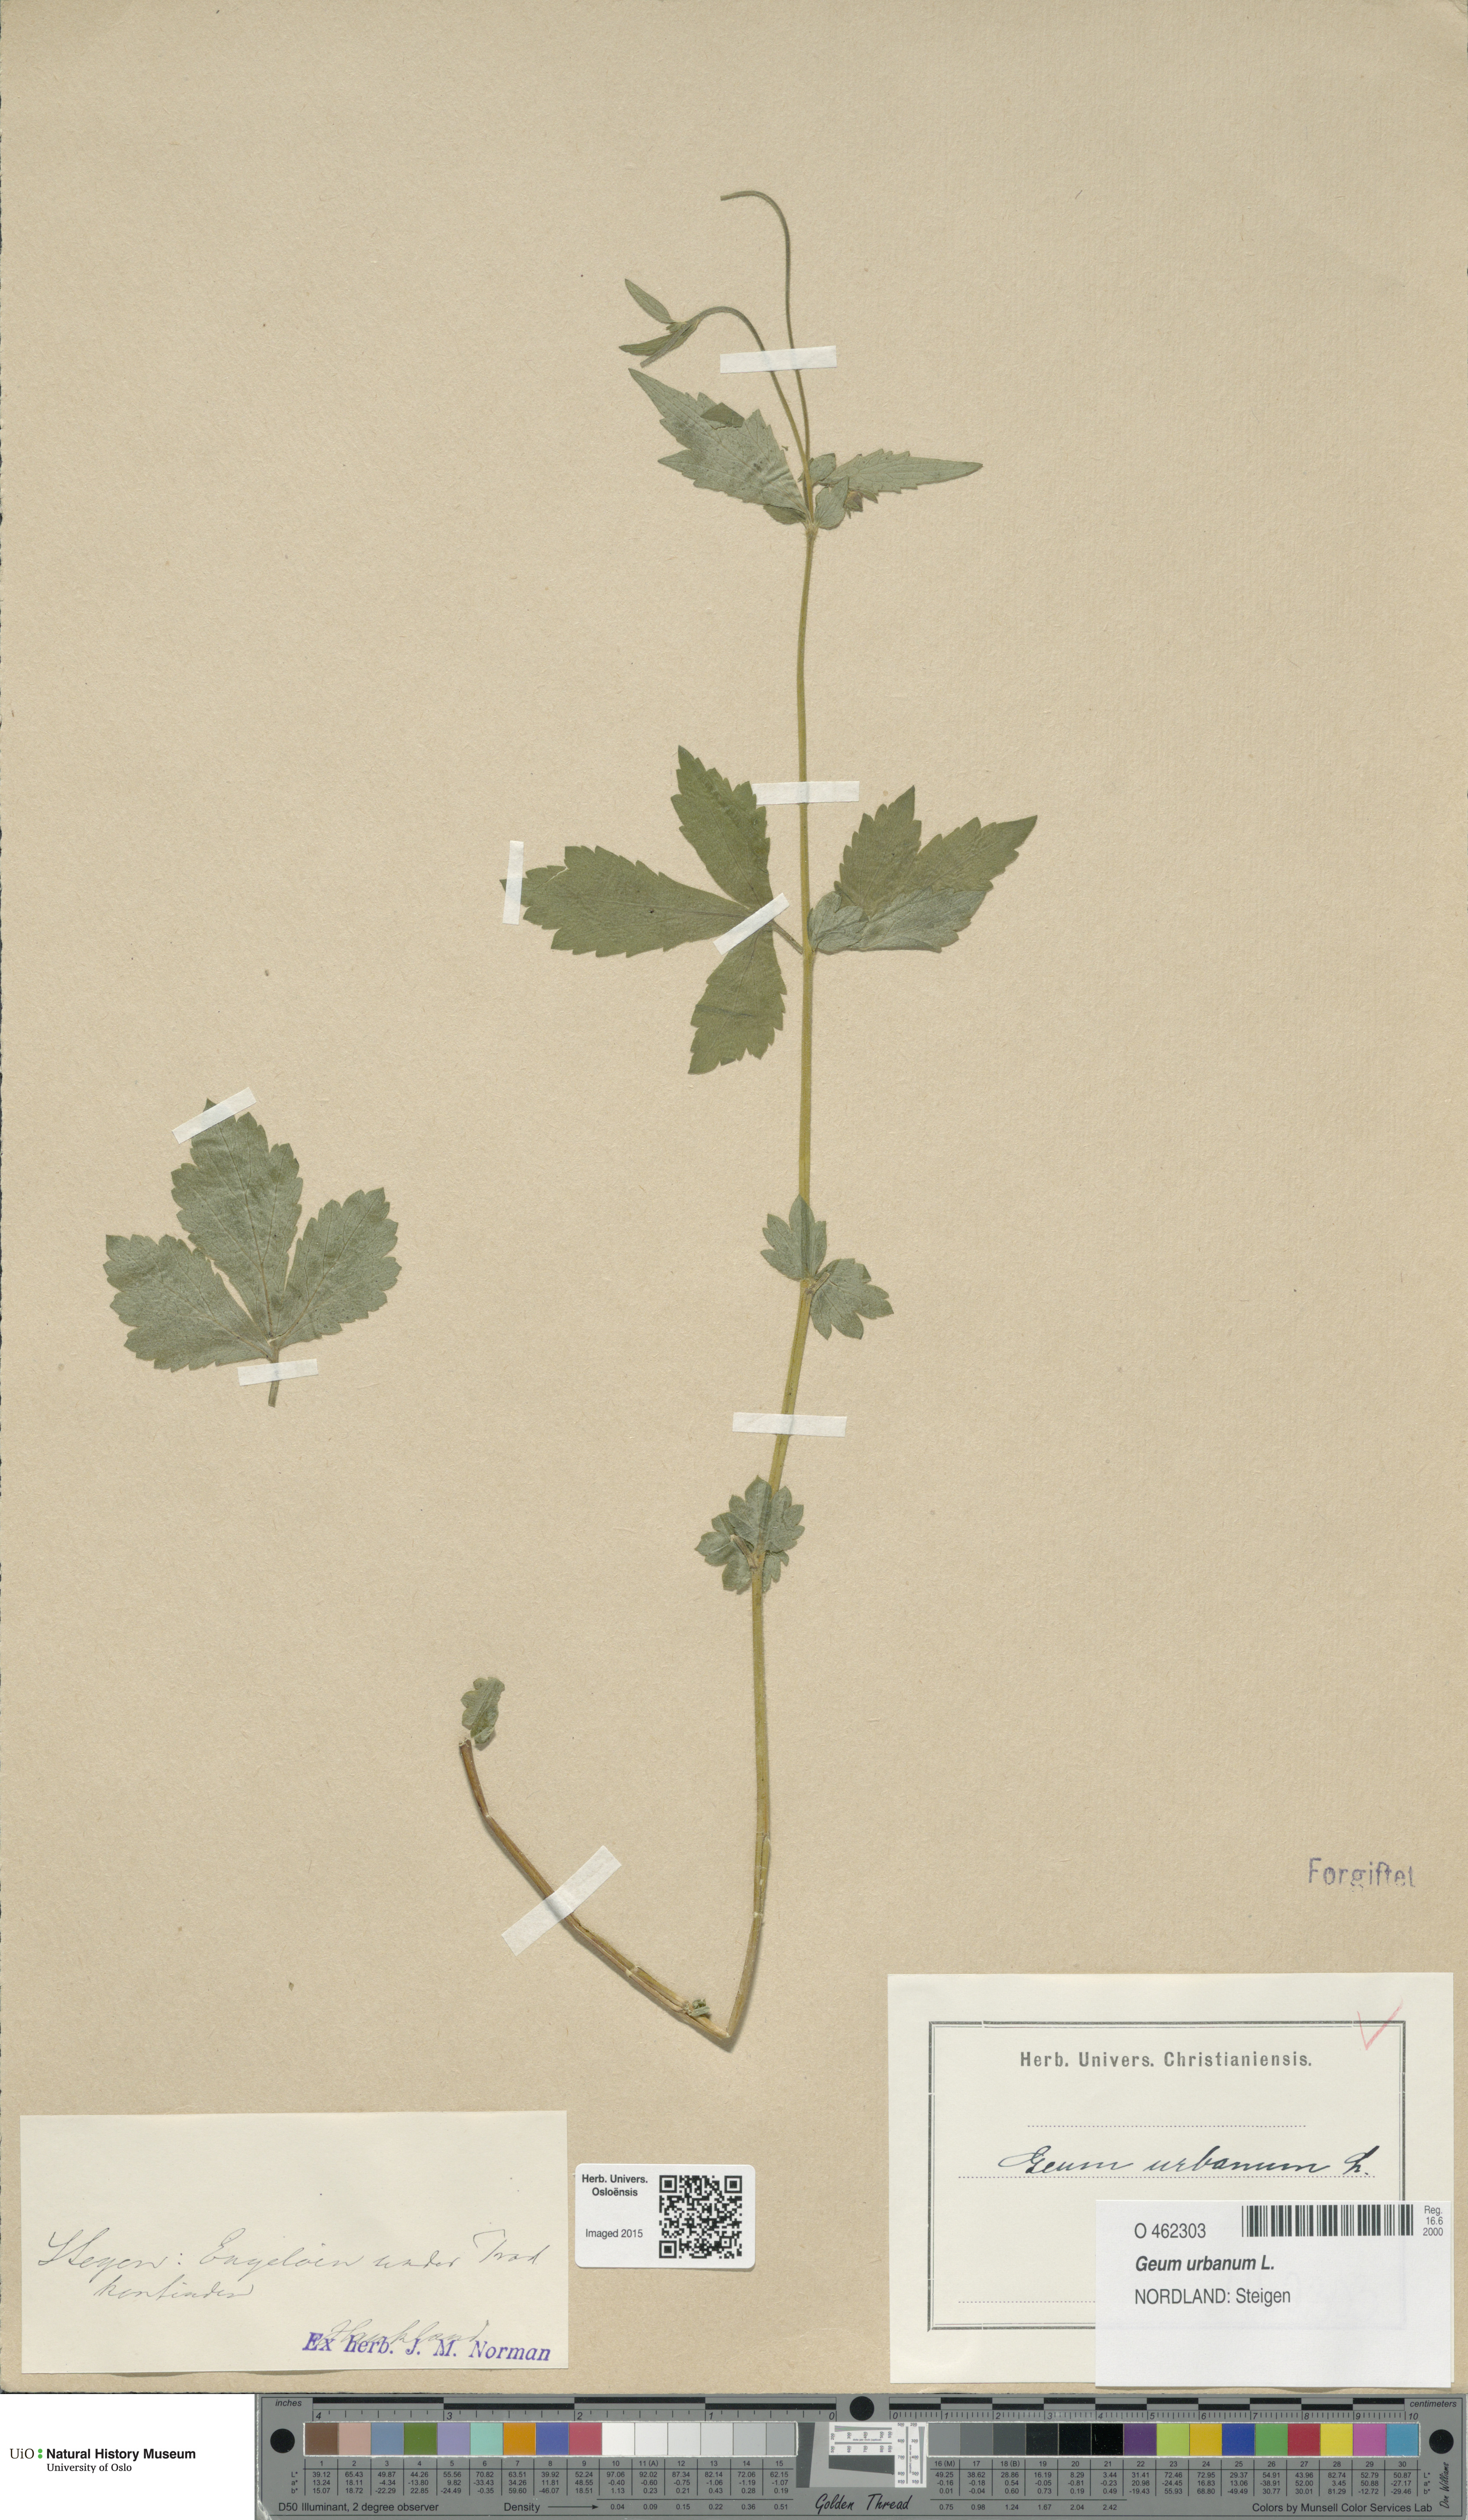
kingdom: Plantae
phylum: Tracheophyta
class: Magnoliopsida
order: Rosales
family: Rosaceae
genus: Geum
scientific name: Geum urbanum
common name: Wood avens
